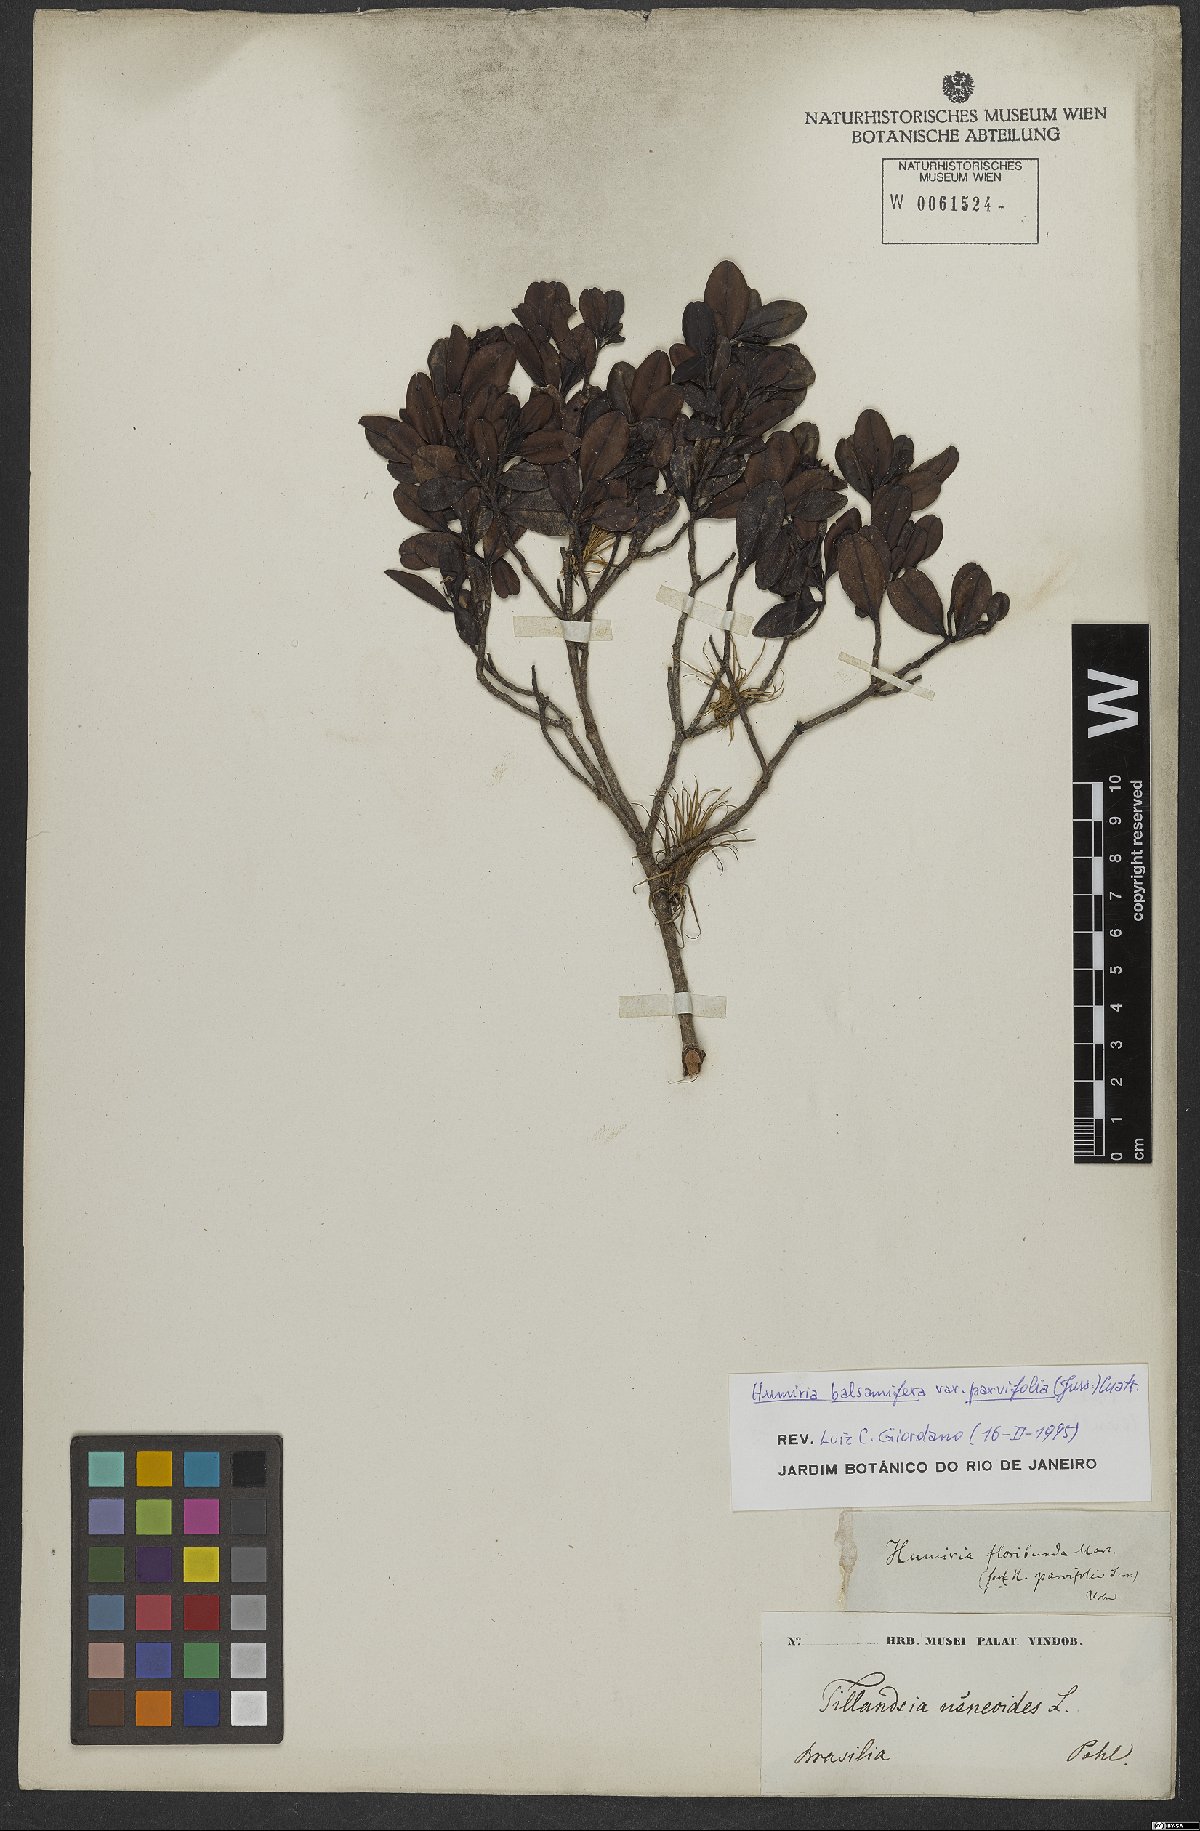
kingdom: Plantae
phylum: Tracheophyta
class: Magnoliopsida
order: Malpighiales
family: Humiriaceae
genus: Humiria
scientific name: Humiria parvifolia
